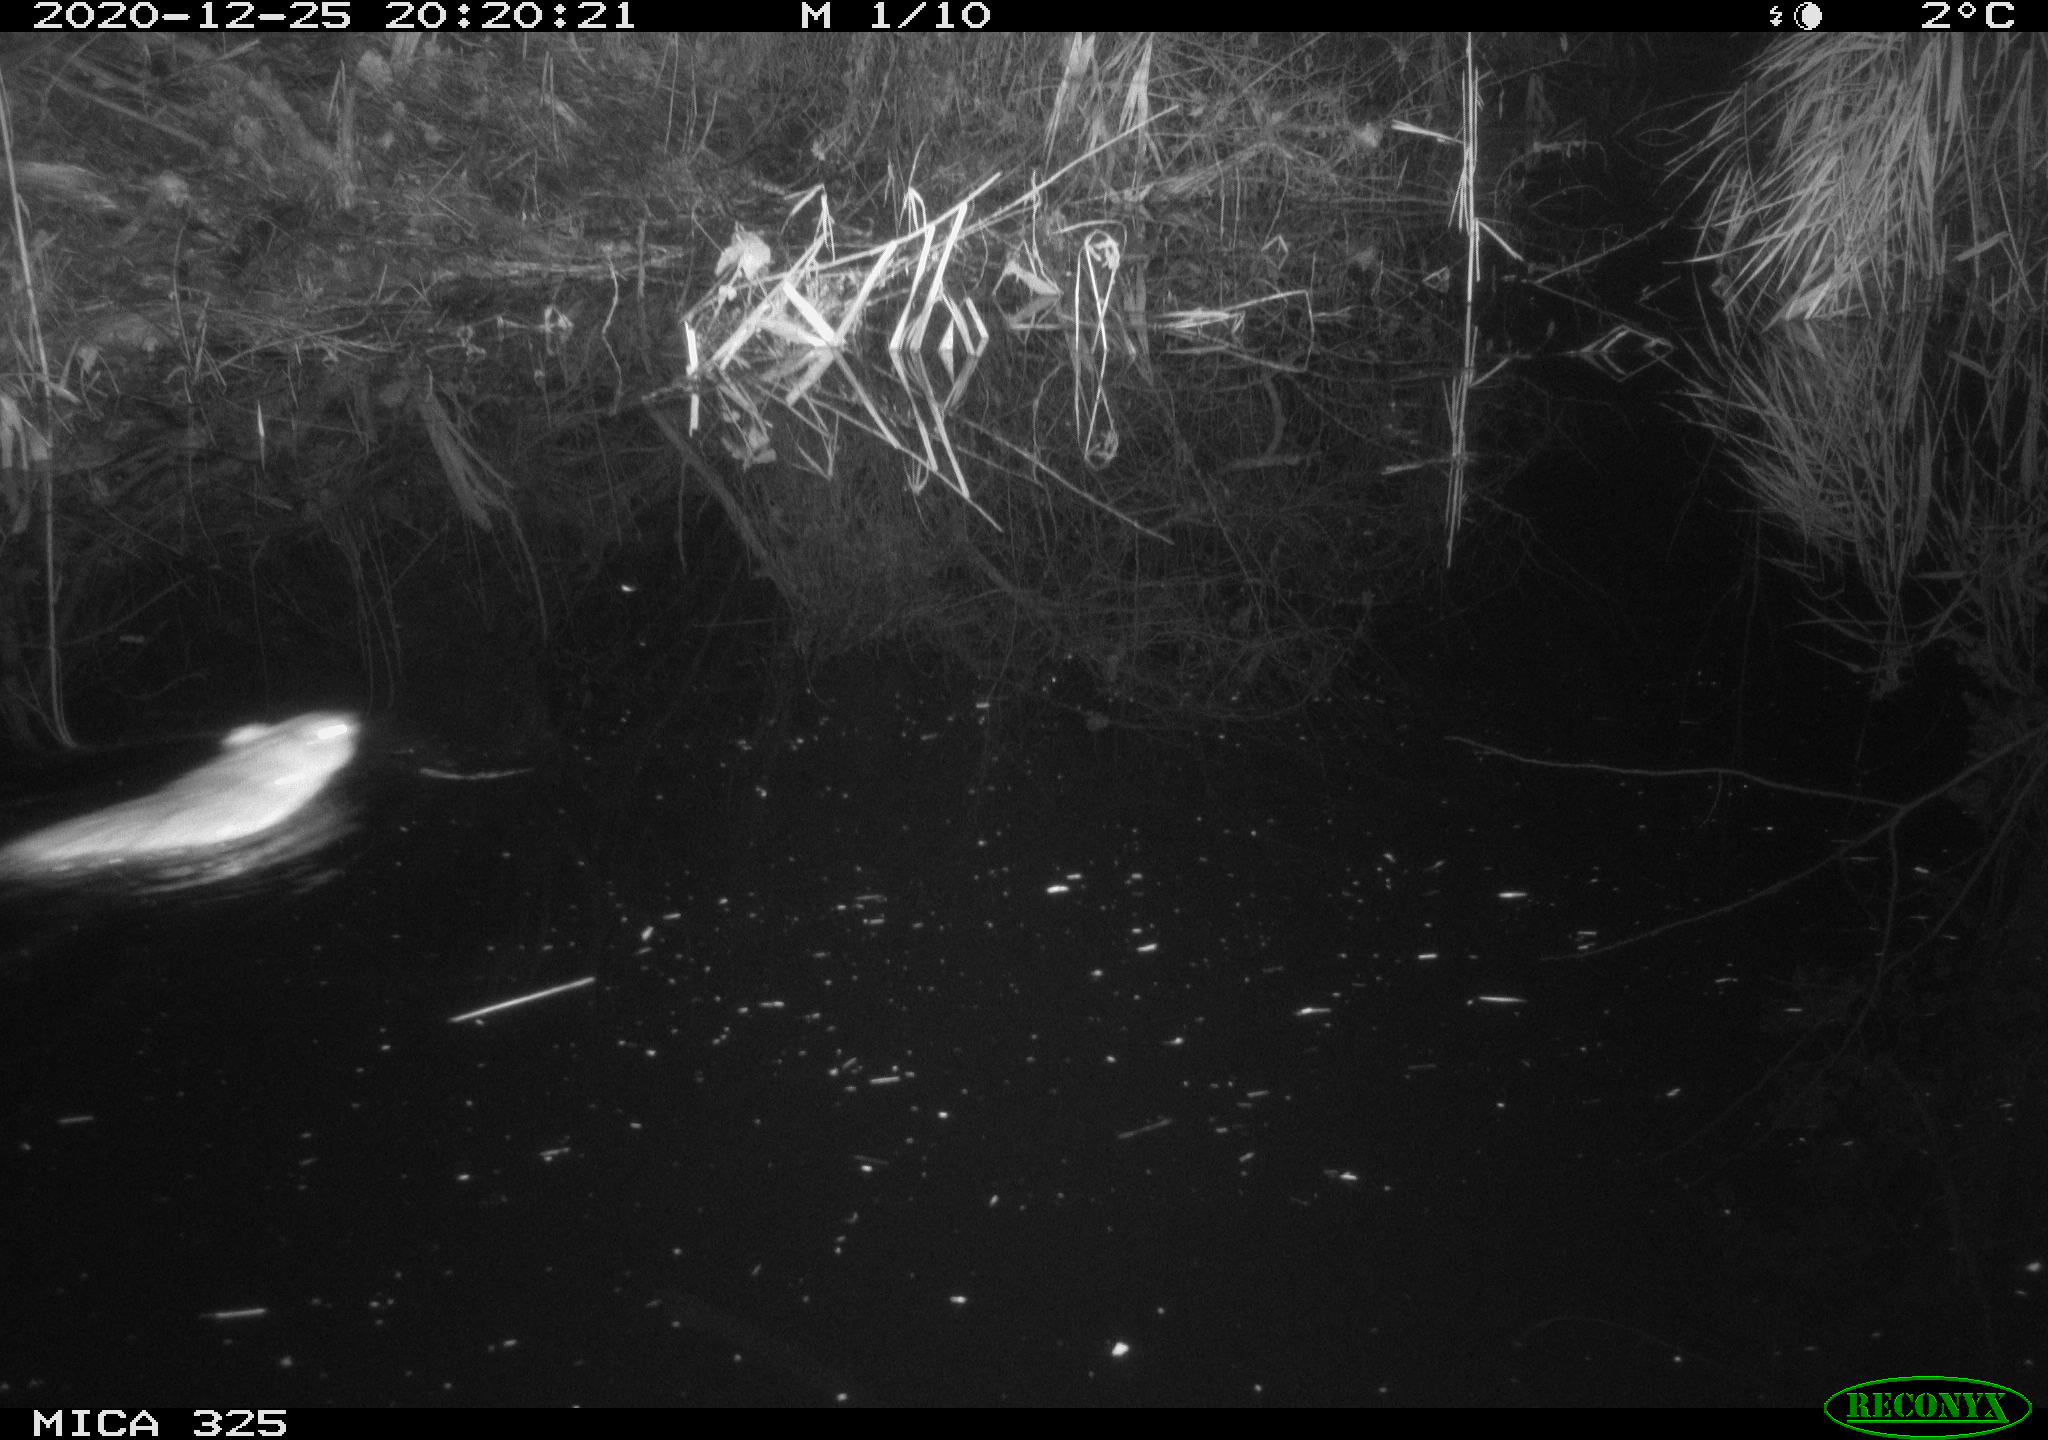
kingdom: Animalia
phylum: Chordata
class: Mammalia
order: Rodentia
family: Cricetidae
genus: Ondatra
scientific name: Ondatra zibethicus
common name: Muskrat
